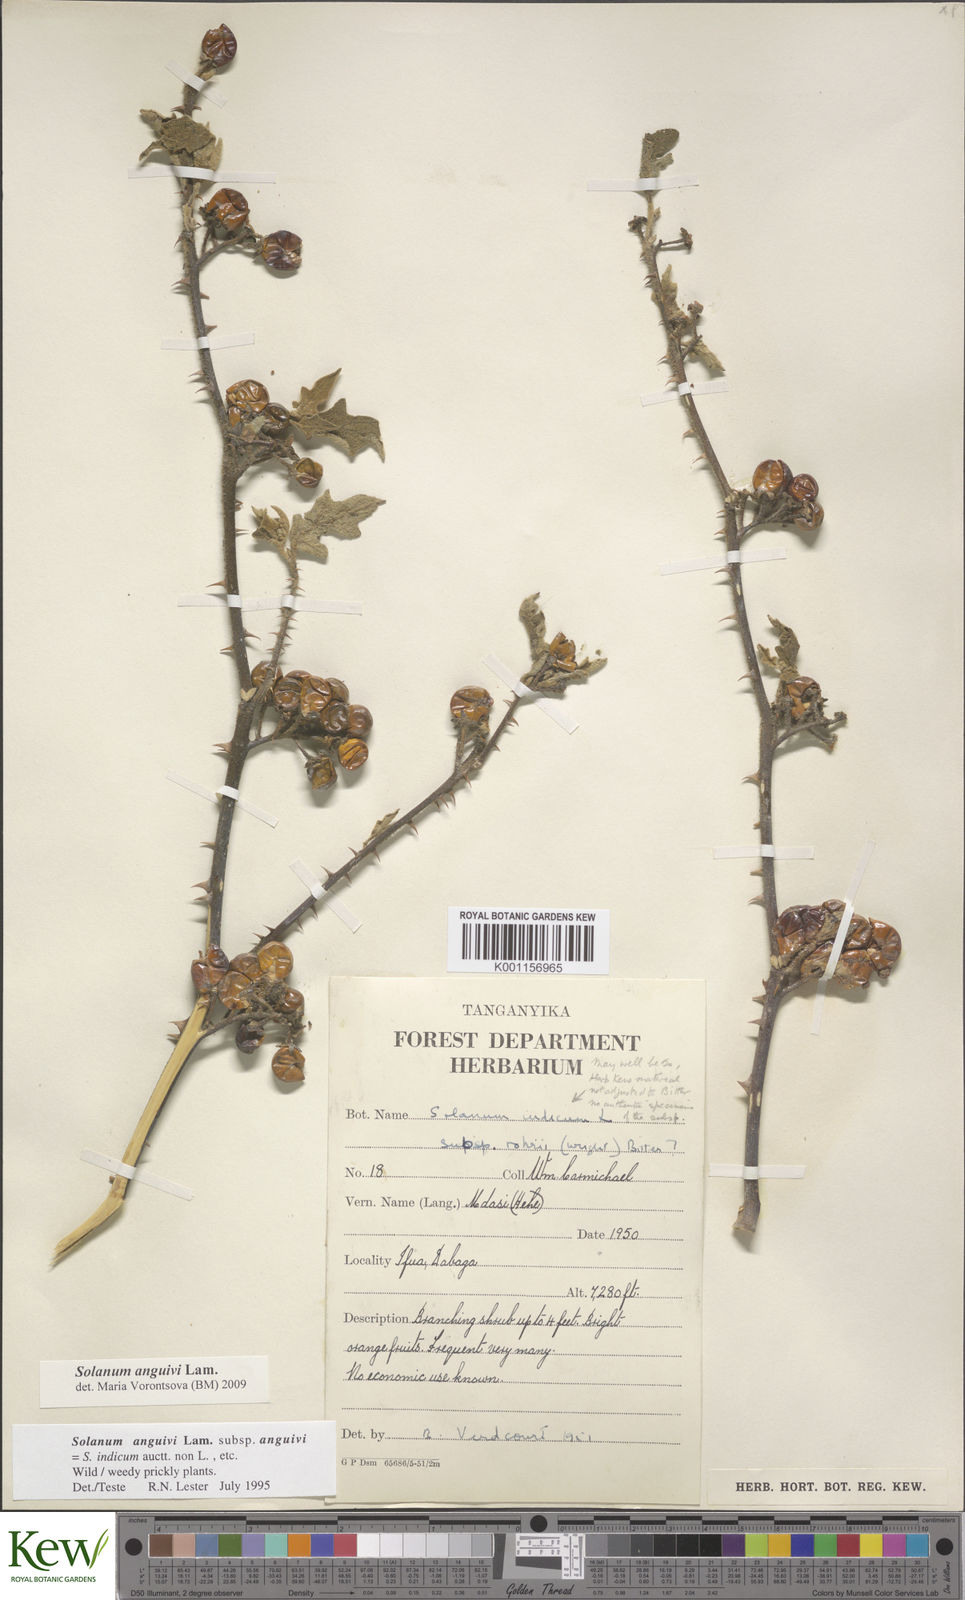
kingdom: Plantae
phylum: Tracheophyta
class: Magnoliopsida
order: Solanales
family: Solanaceae
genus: Solanum
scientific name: Solanum anguivi
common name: Forest bitterberry
